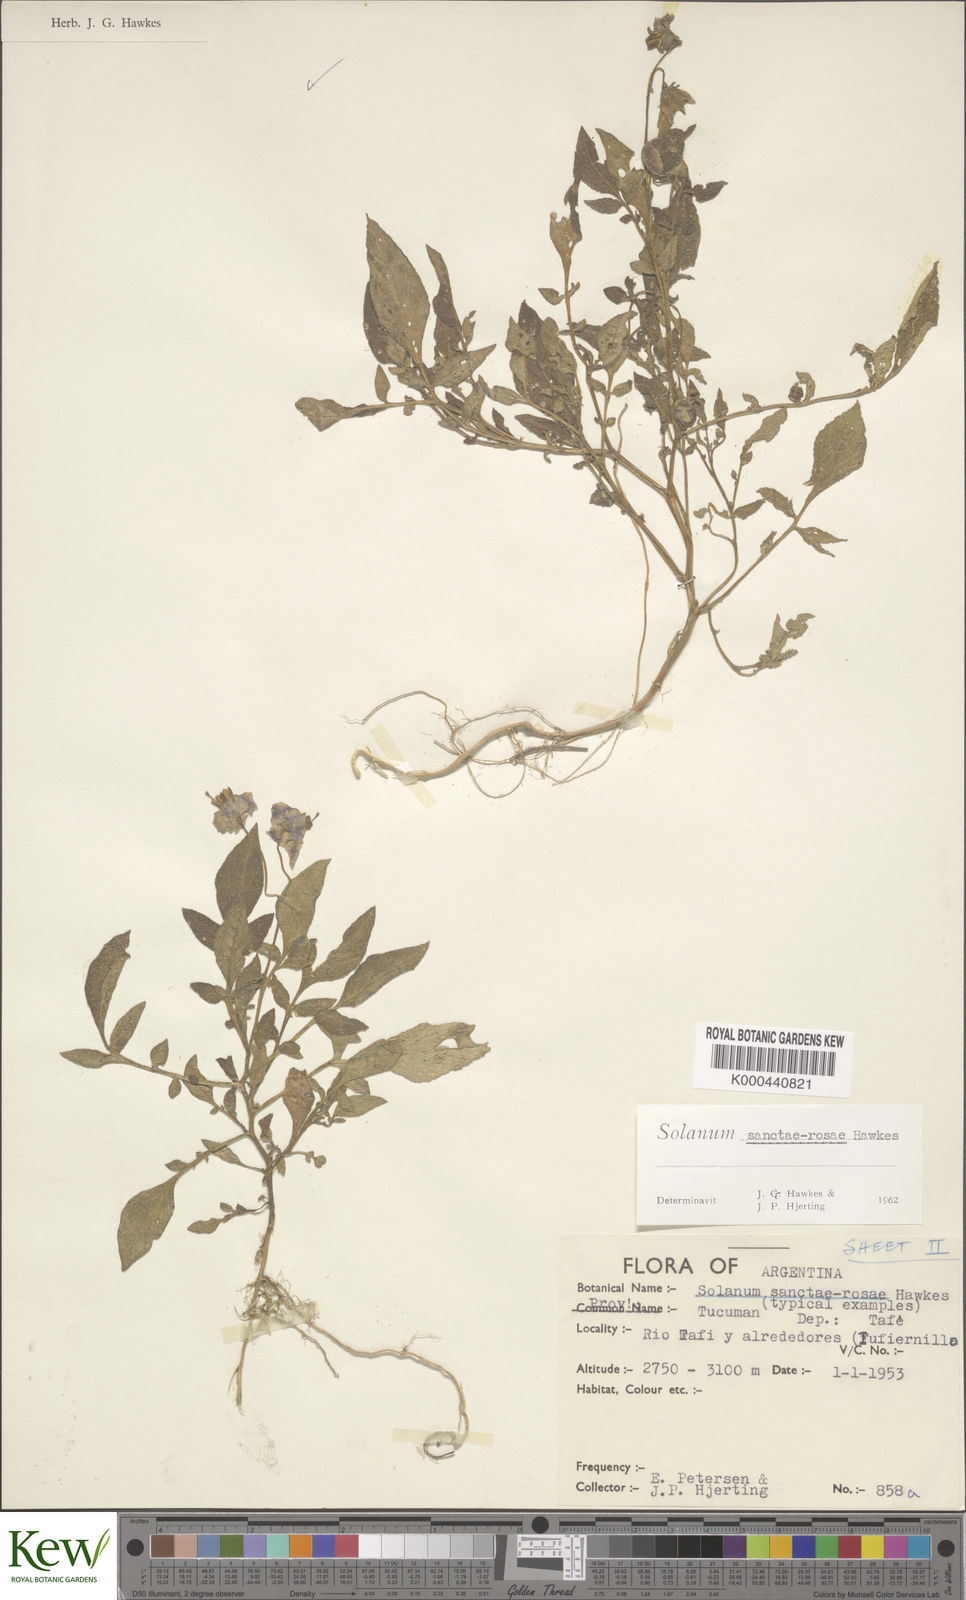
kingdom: Plantae
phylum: Tracheophyta
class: Magnoliopsida
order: Solanales
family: Solanaceae
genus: Solanum
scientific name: Solanum boliviense
